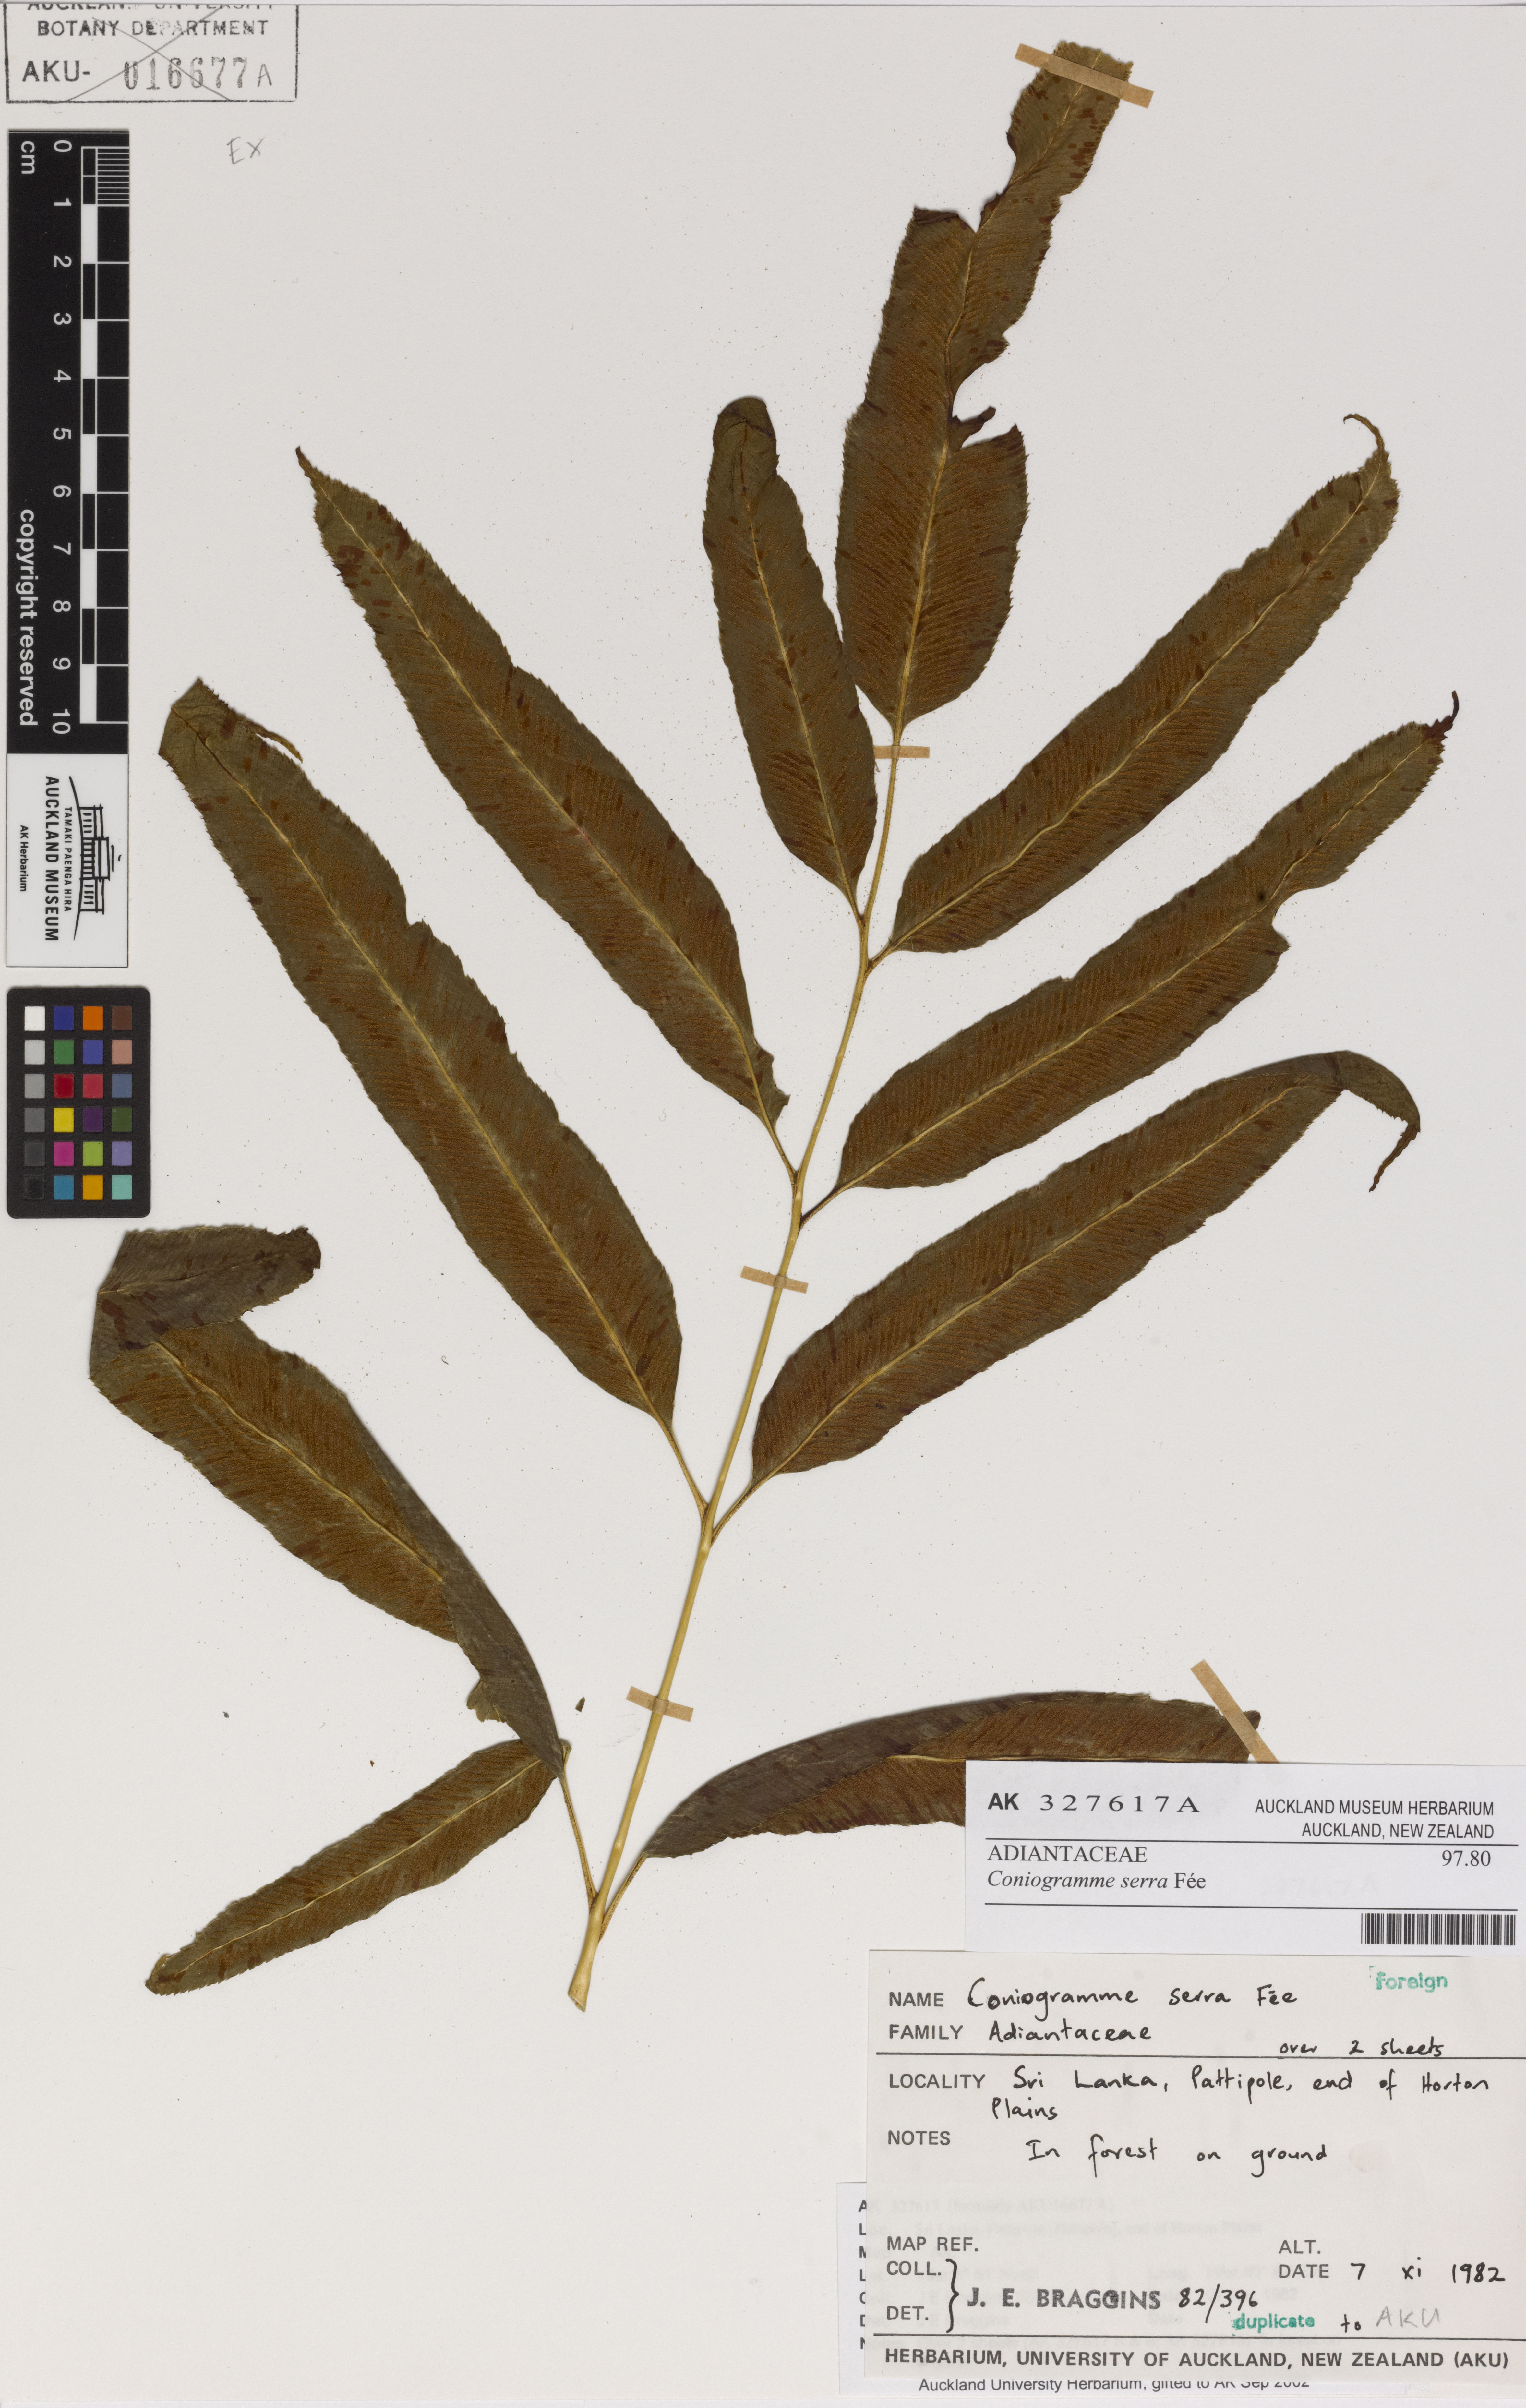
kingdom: Plantae
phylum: Tracheophyta
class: Polypodiopsida
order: Polypodiales
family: Pteridaceae
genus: Coniogramme
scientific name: Coniogramme serrulata
